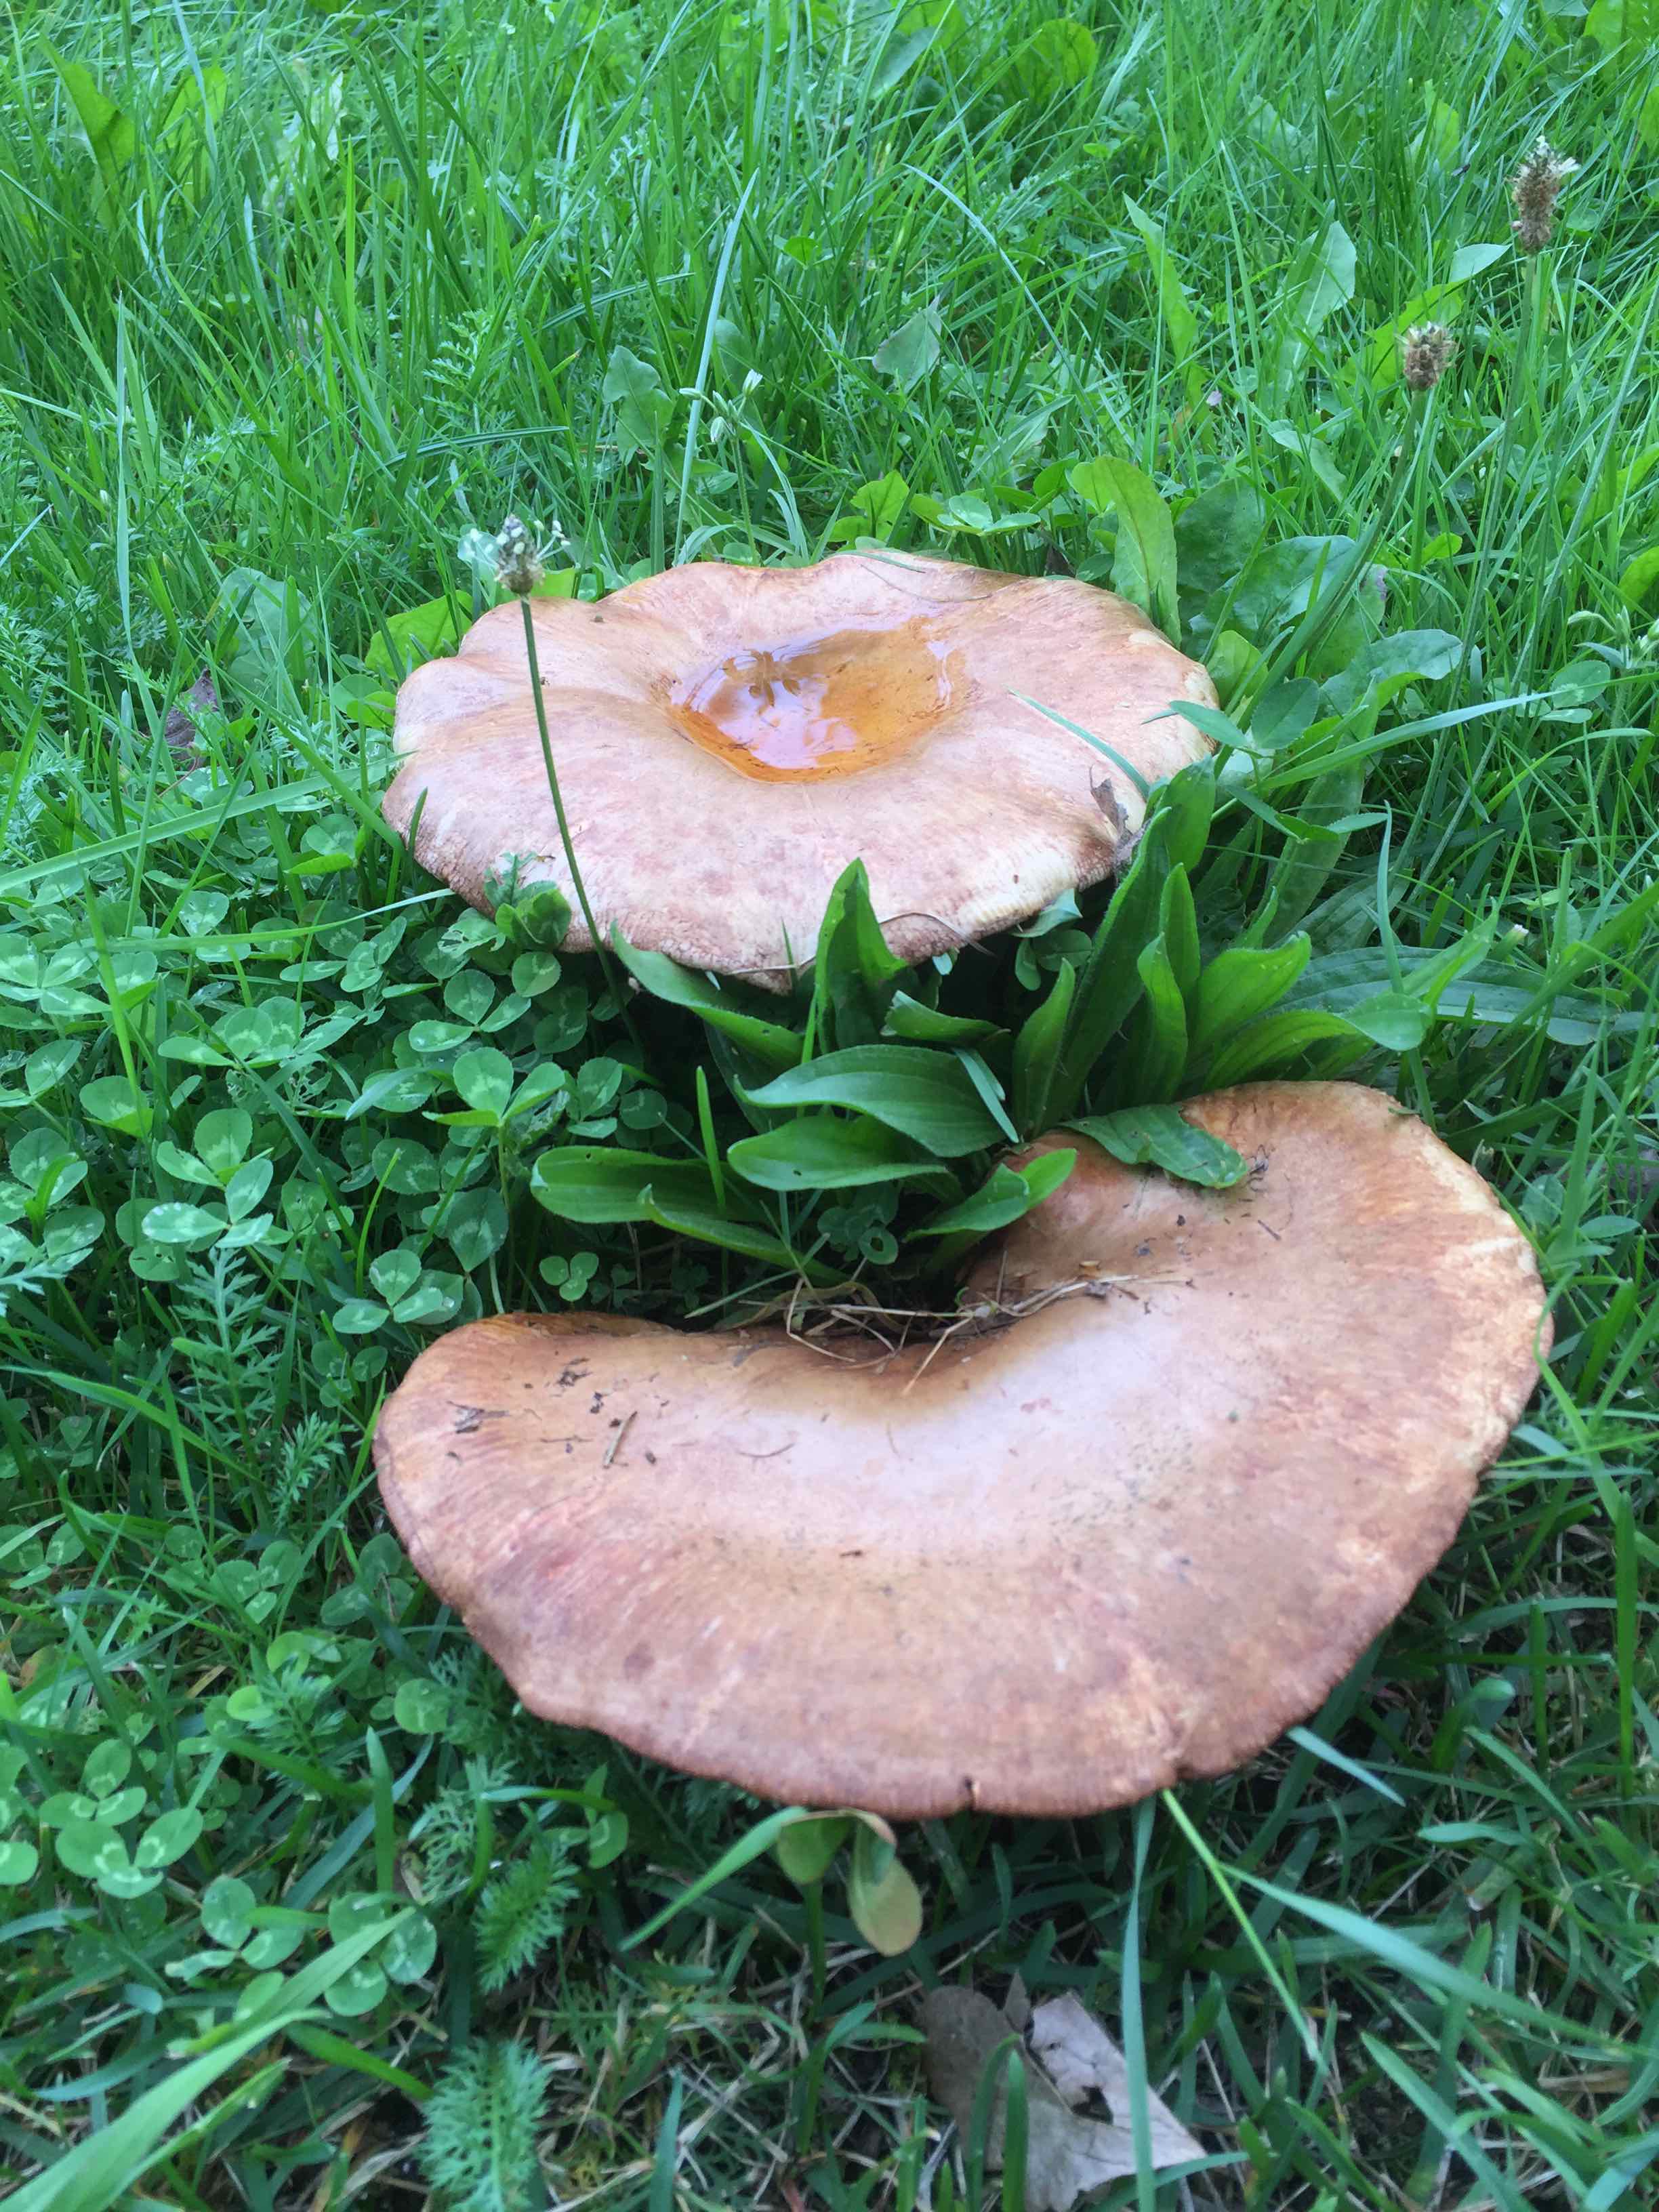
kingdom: Fungi
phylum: Basidiomycota
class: Agaricomycetes
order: Boletales
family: Paxillaceae
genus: Paxillus
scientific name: Paxillus
